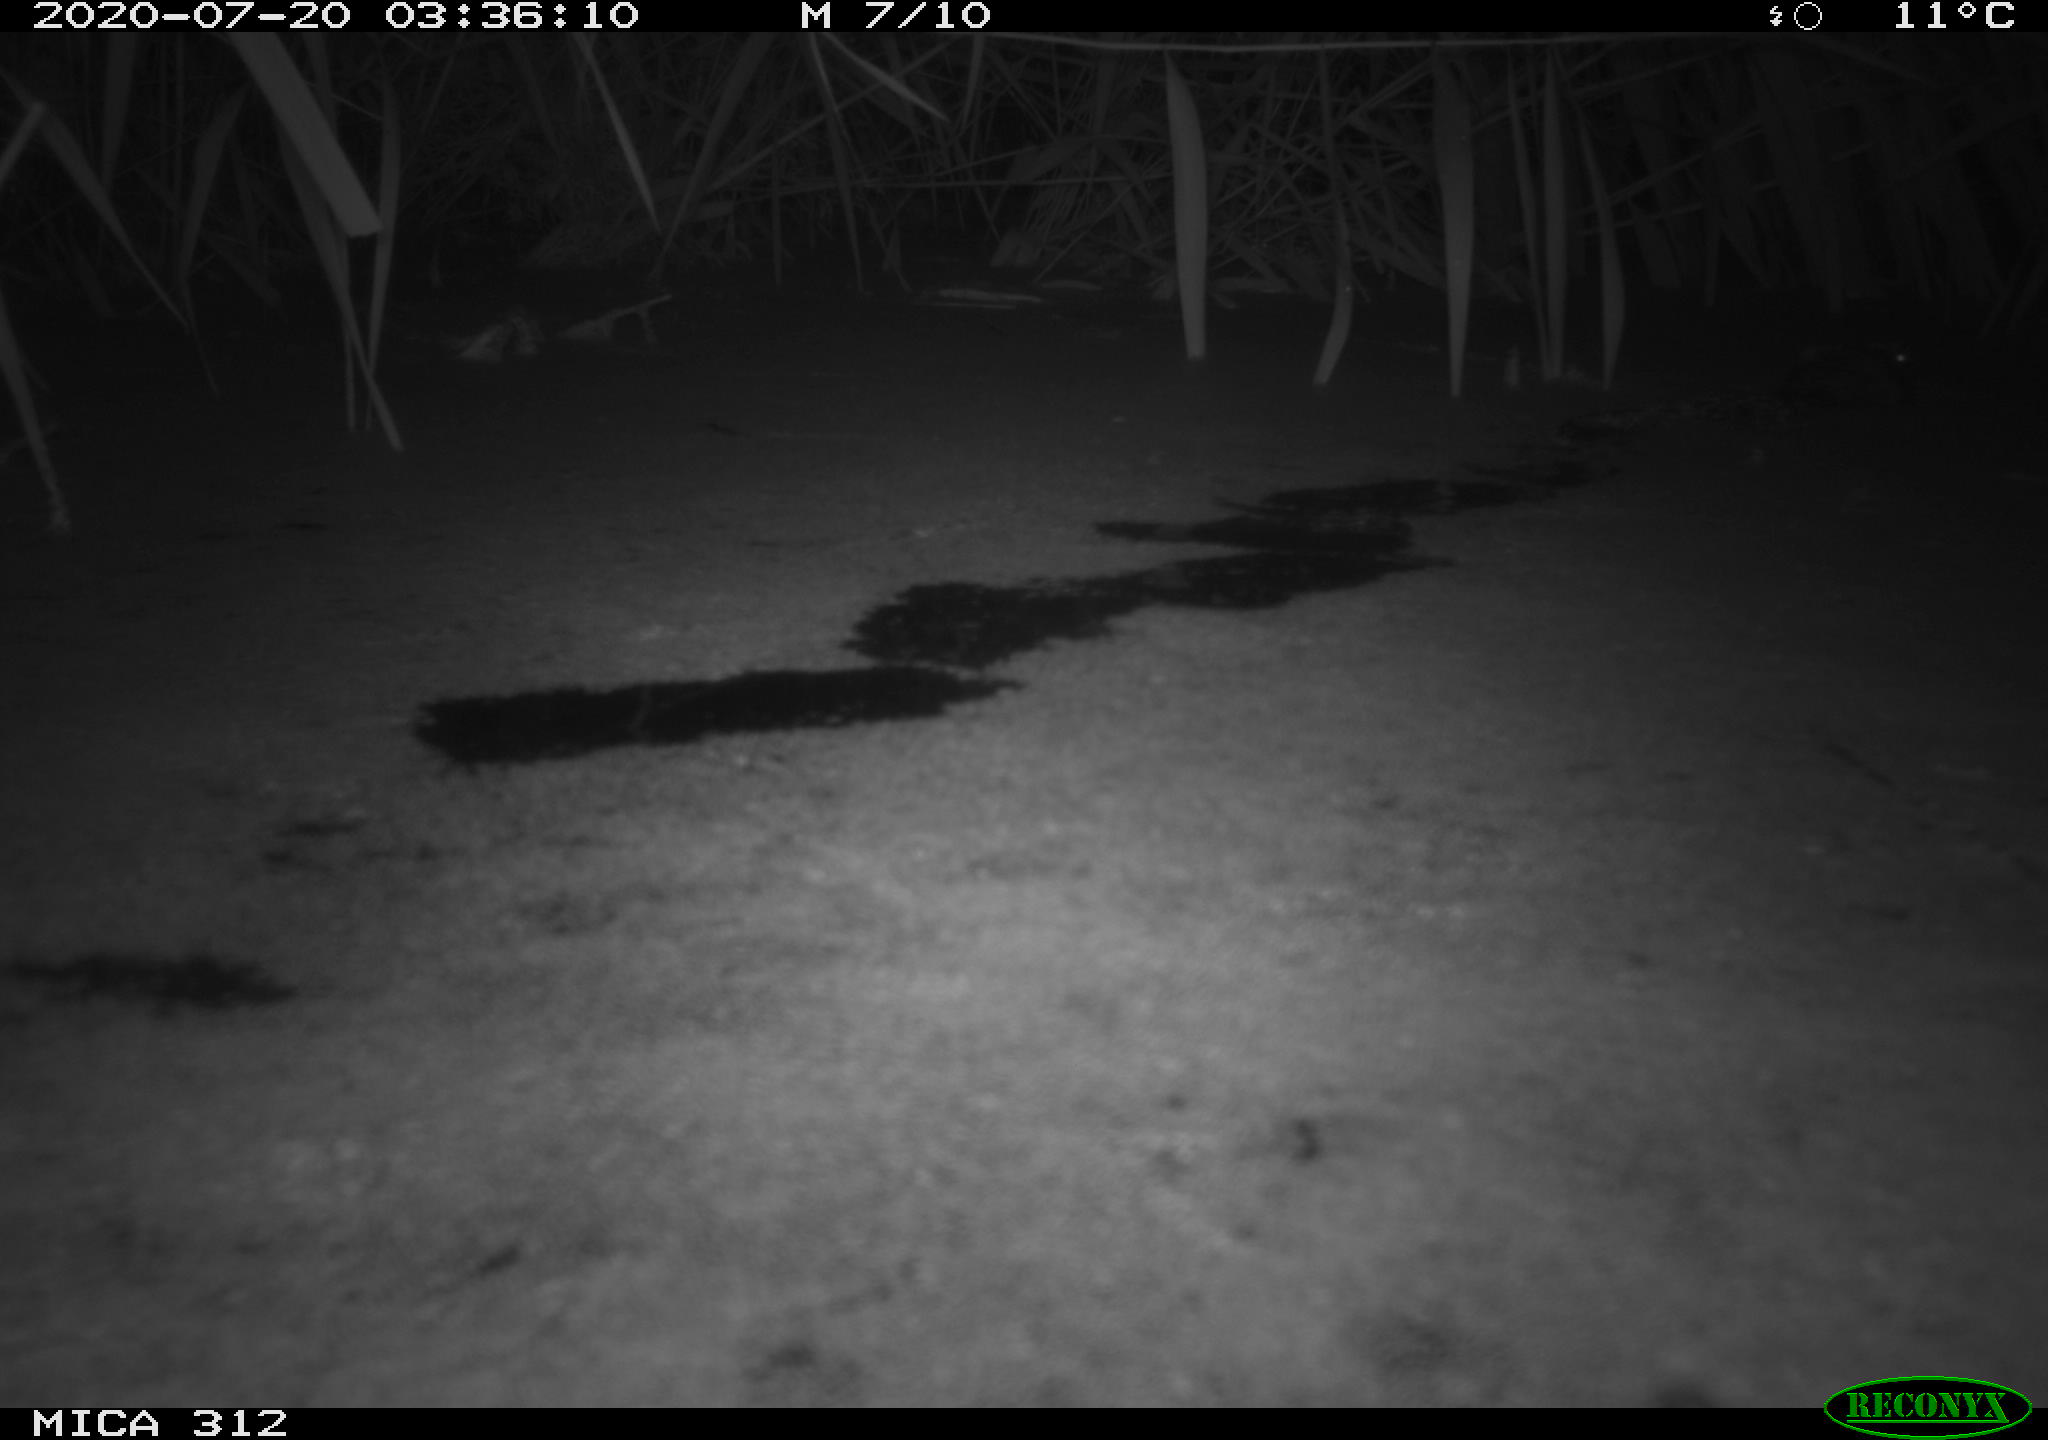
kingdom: Animalia
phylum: Chordata
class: Mammalia
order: Rodentia
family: Cricetidae
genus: Ondatra
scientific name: Ondatra zibethicus
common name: Muskrat
